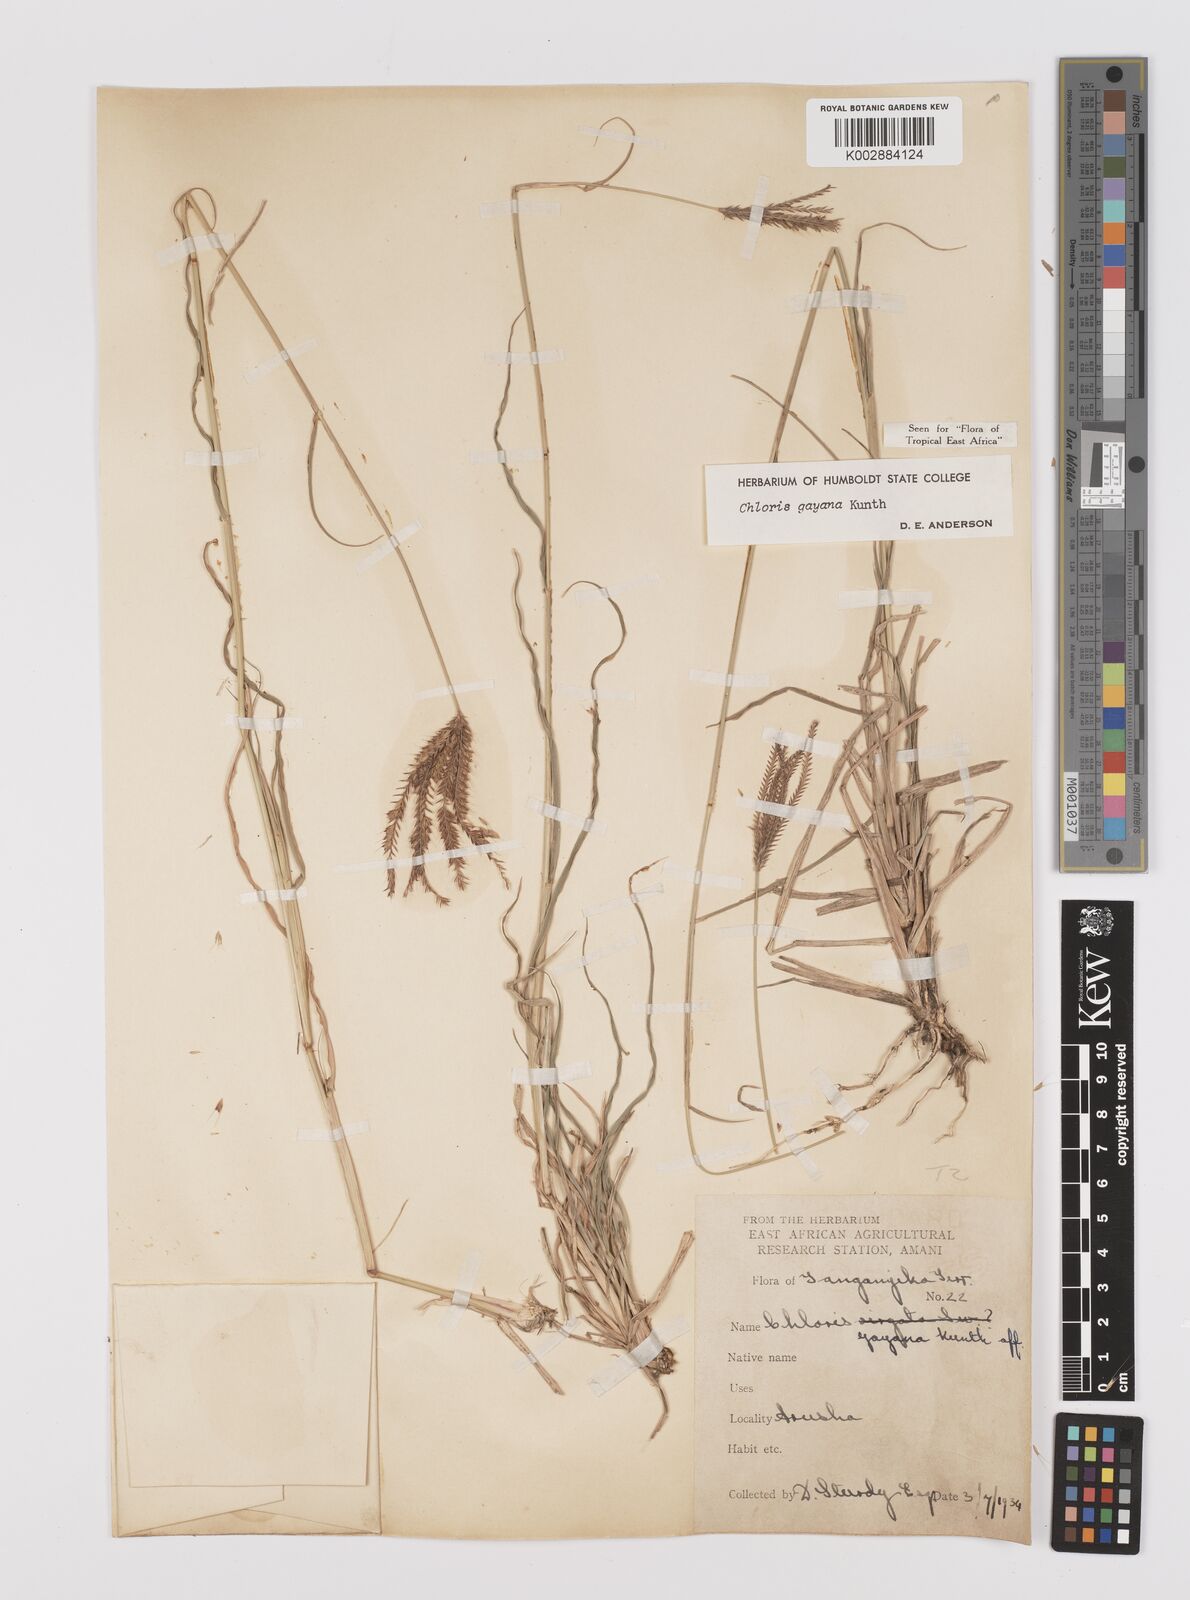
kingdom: Plantae
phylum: Tracheophyta
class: Liliopsida
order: Poales
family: Poaceae
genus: Chloris
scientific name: Chloris gayana
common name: Rhodes grass
